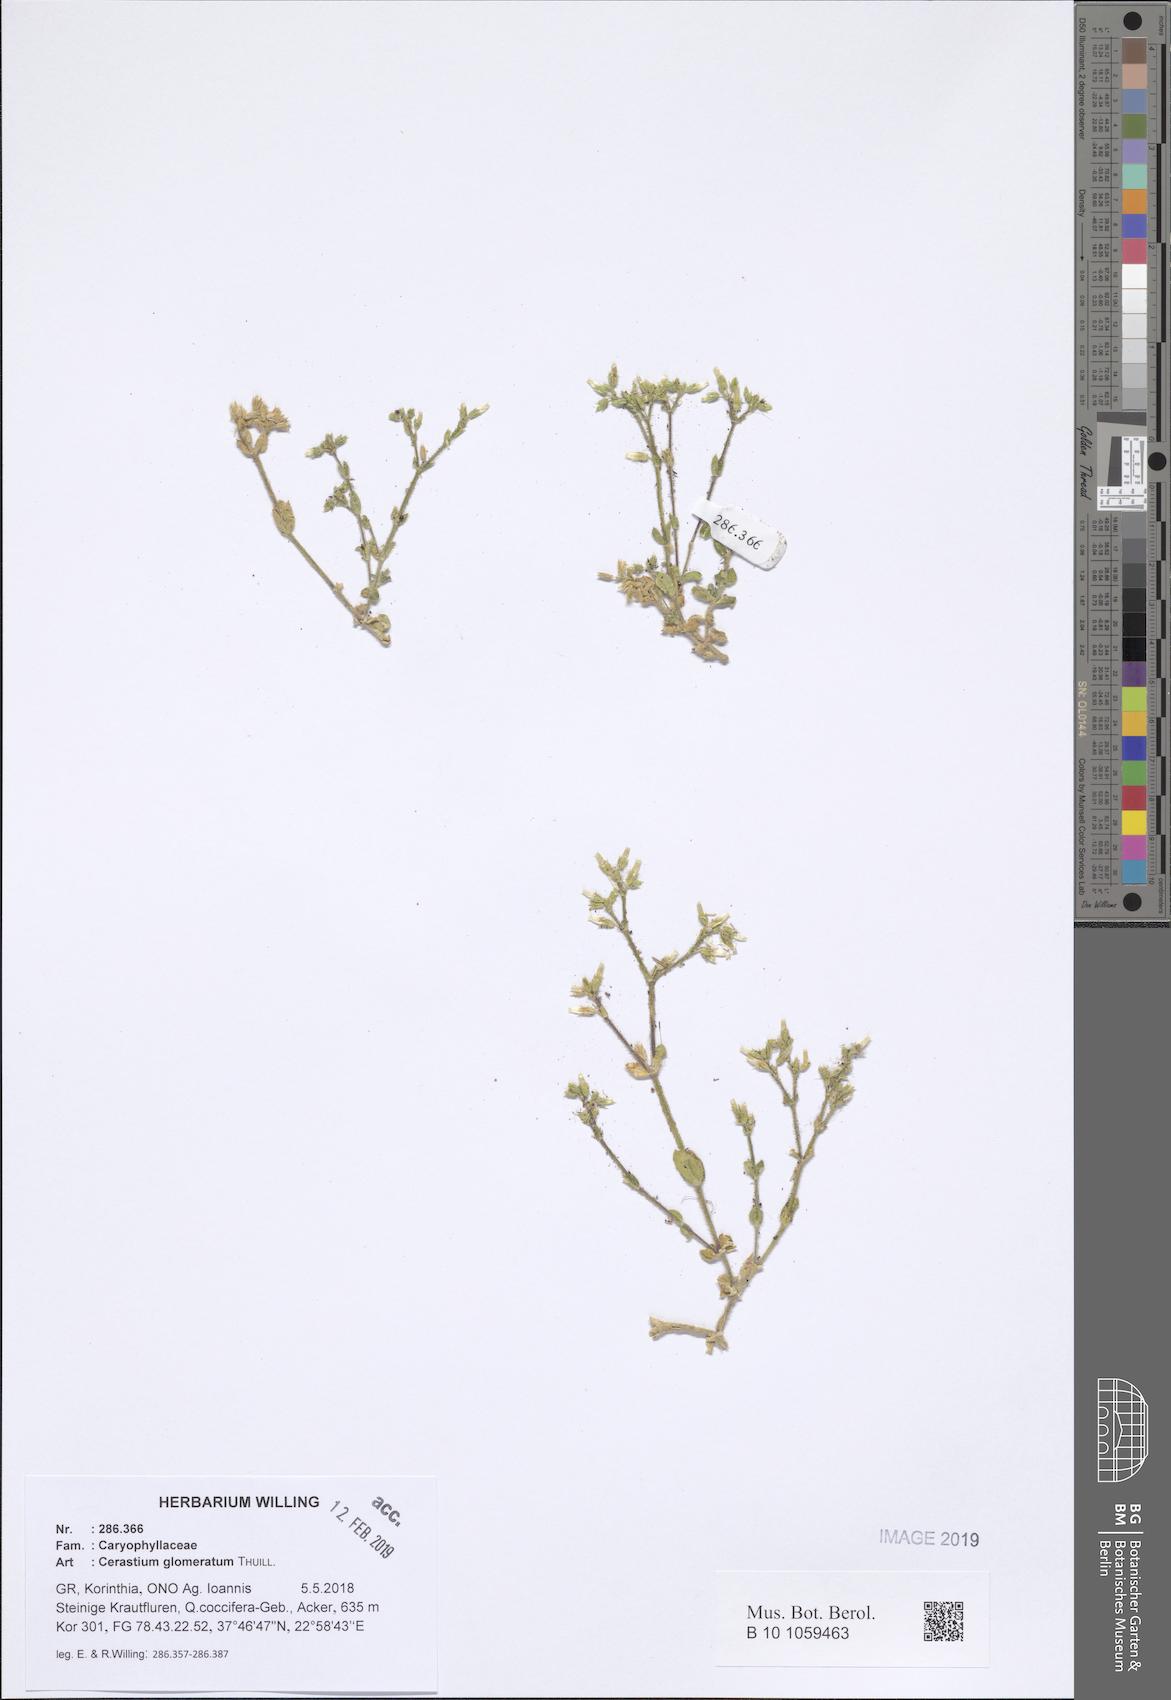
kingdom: Plantae
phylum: Tracheophyta
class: Magnoliopsida
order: Caryophyllales
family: Caryophyllaceae
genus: Cerastium
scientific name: Cerastium glomeratum
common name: Sticky chickweed
